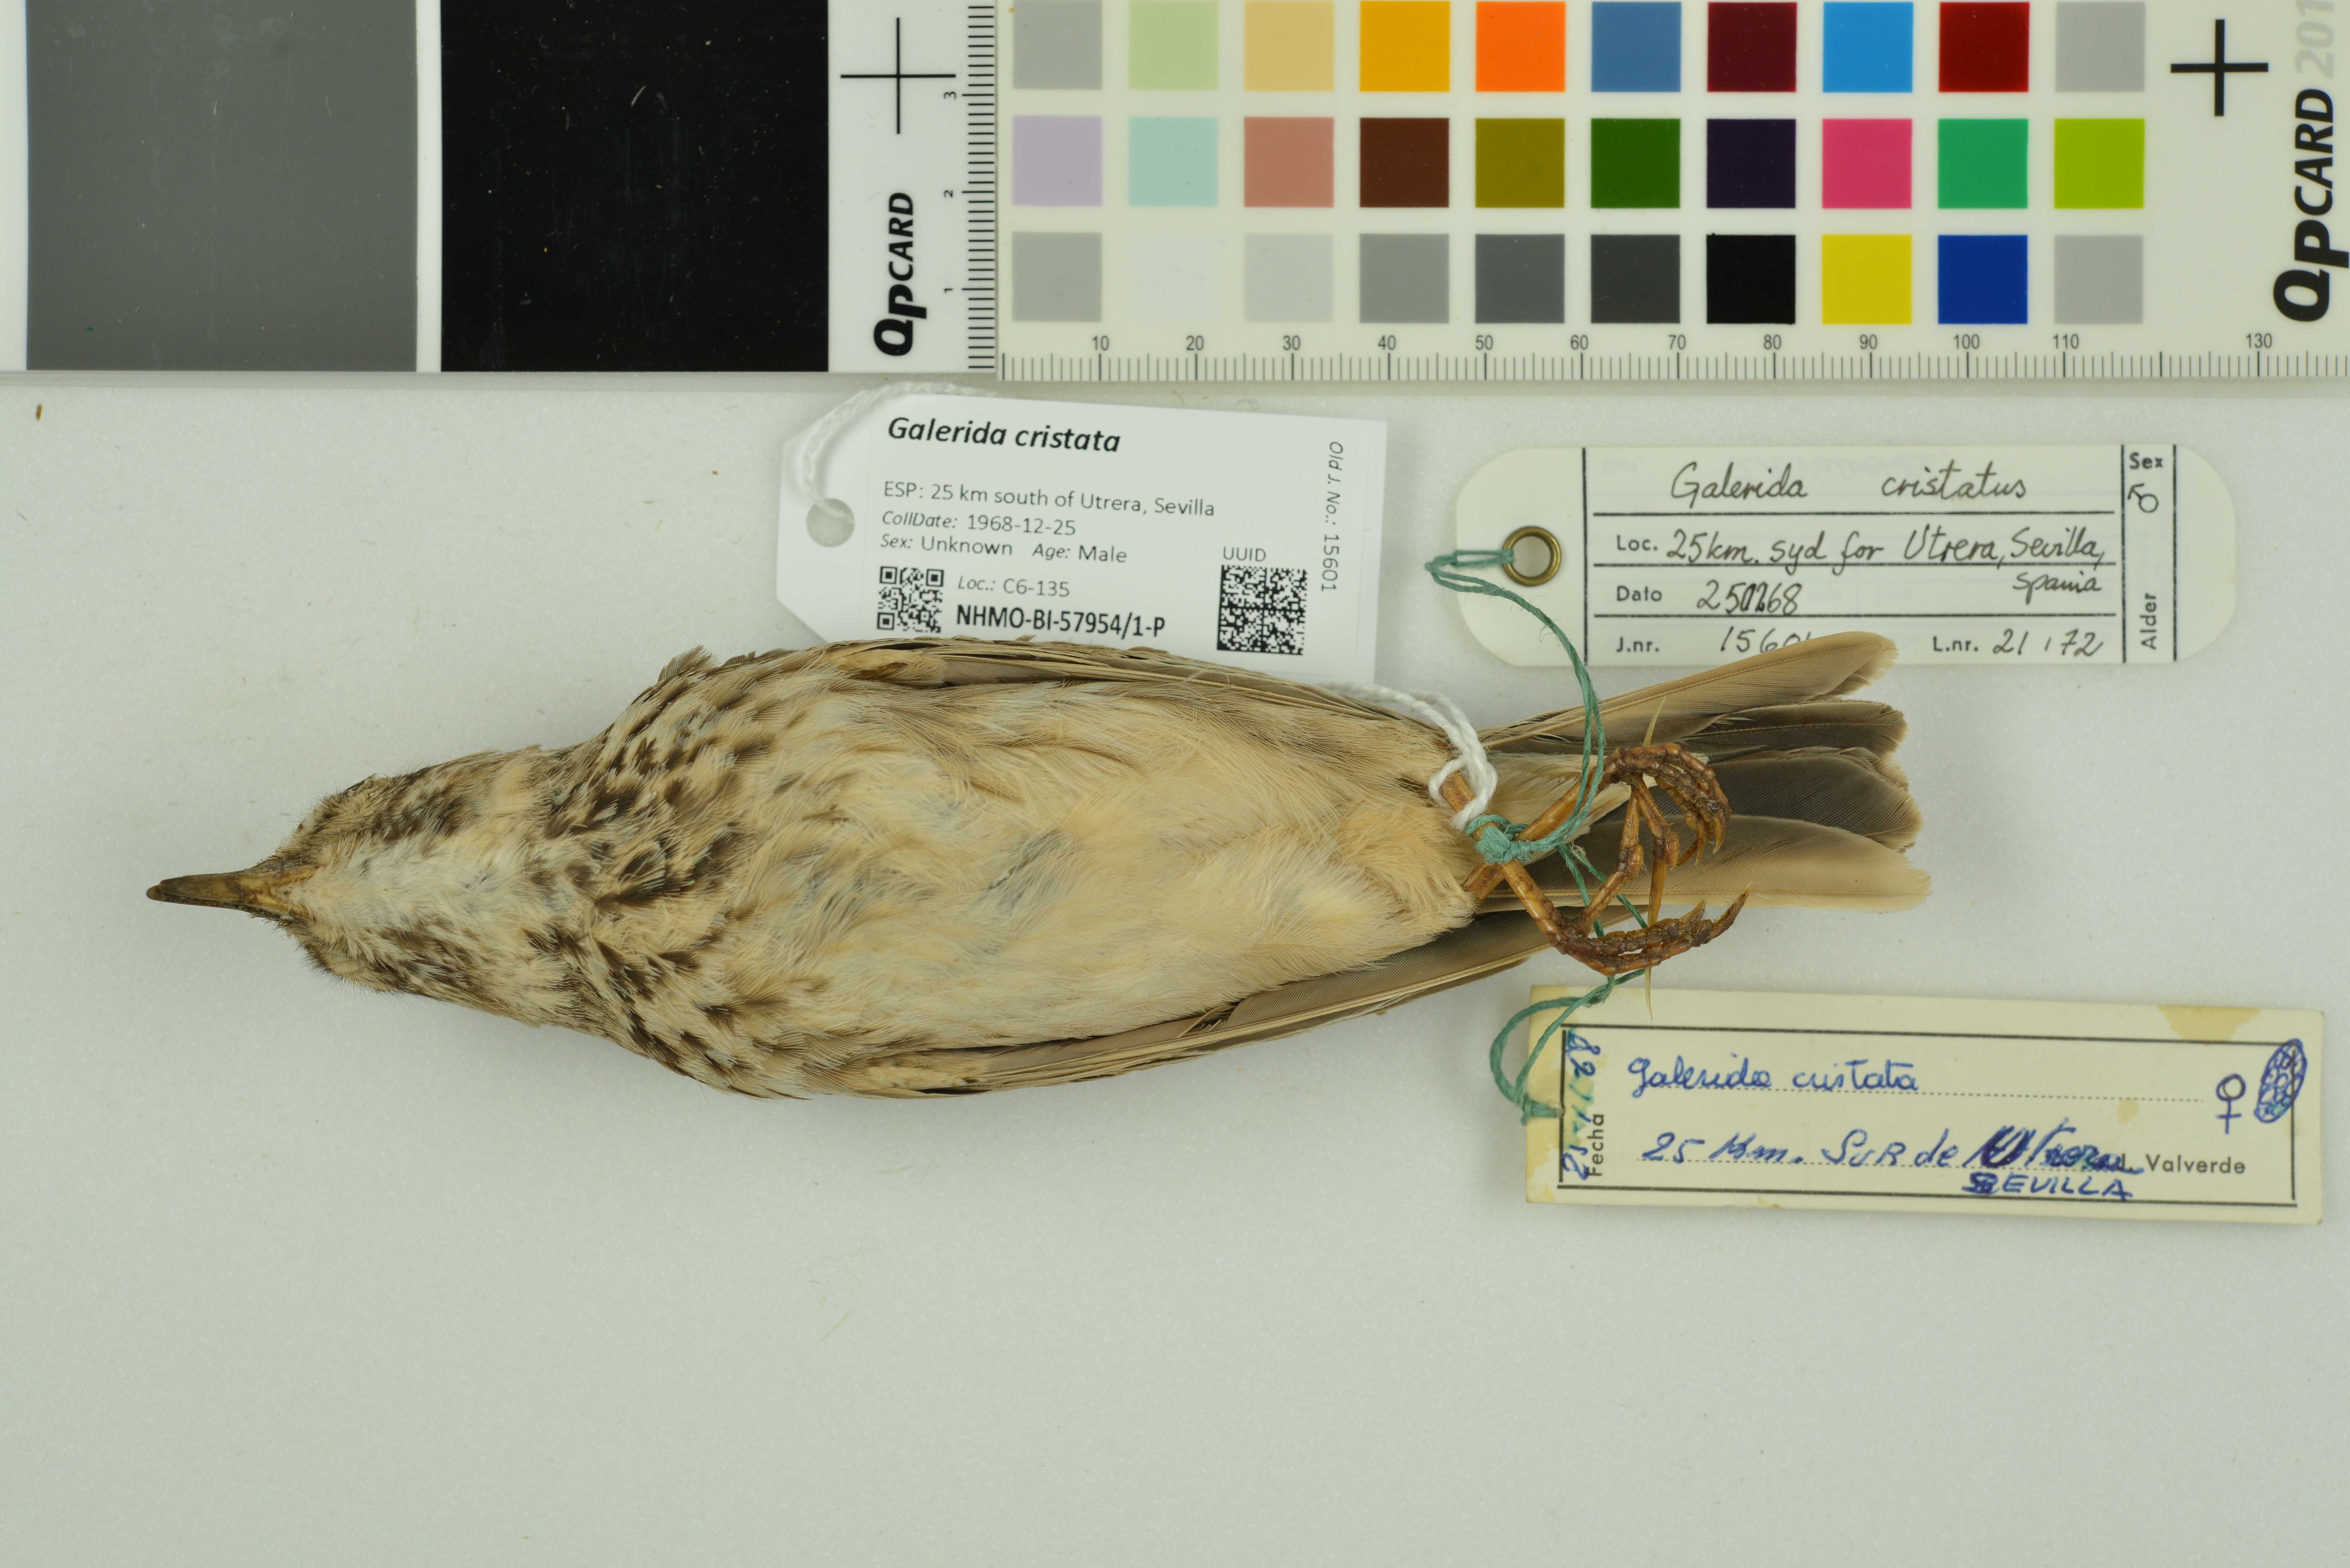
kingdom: Animalia
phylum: Chordata
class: Aves
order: Passeriformes
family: Alaudidae
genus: Galerida
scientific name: Galerida cristata
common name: Crested lark
